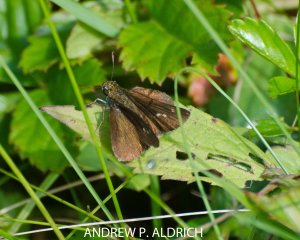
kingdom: Animalia
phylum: Arthropoda
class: Insecta
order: Lepidoptera
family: Hesperiidae
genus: Euphyes
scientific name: Euphyes vestris
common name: Dun Skipper
